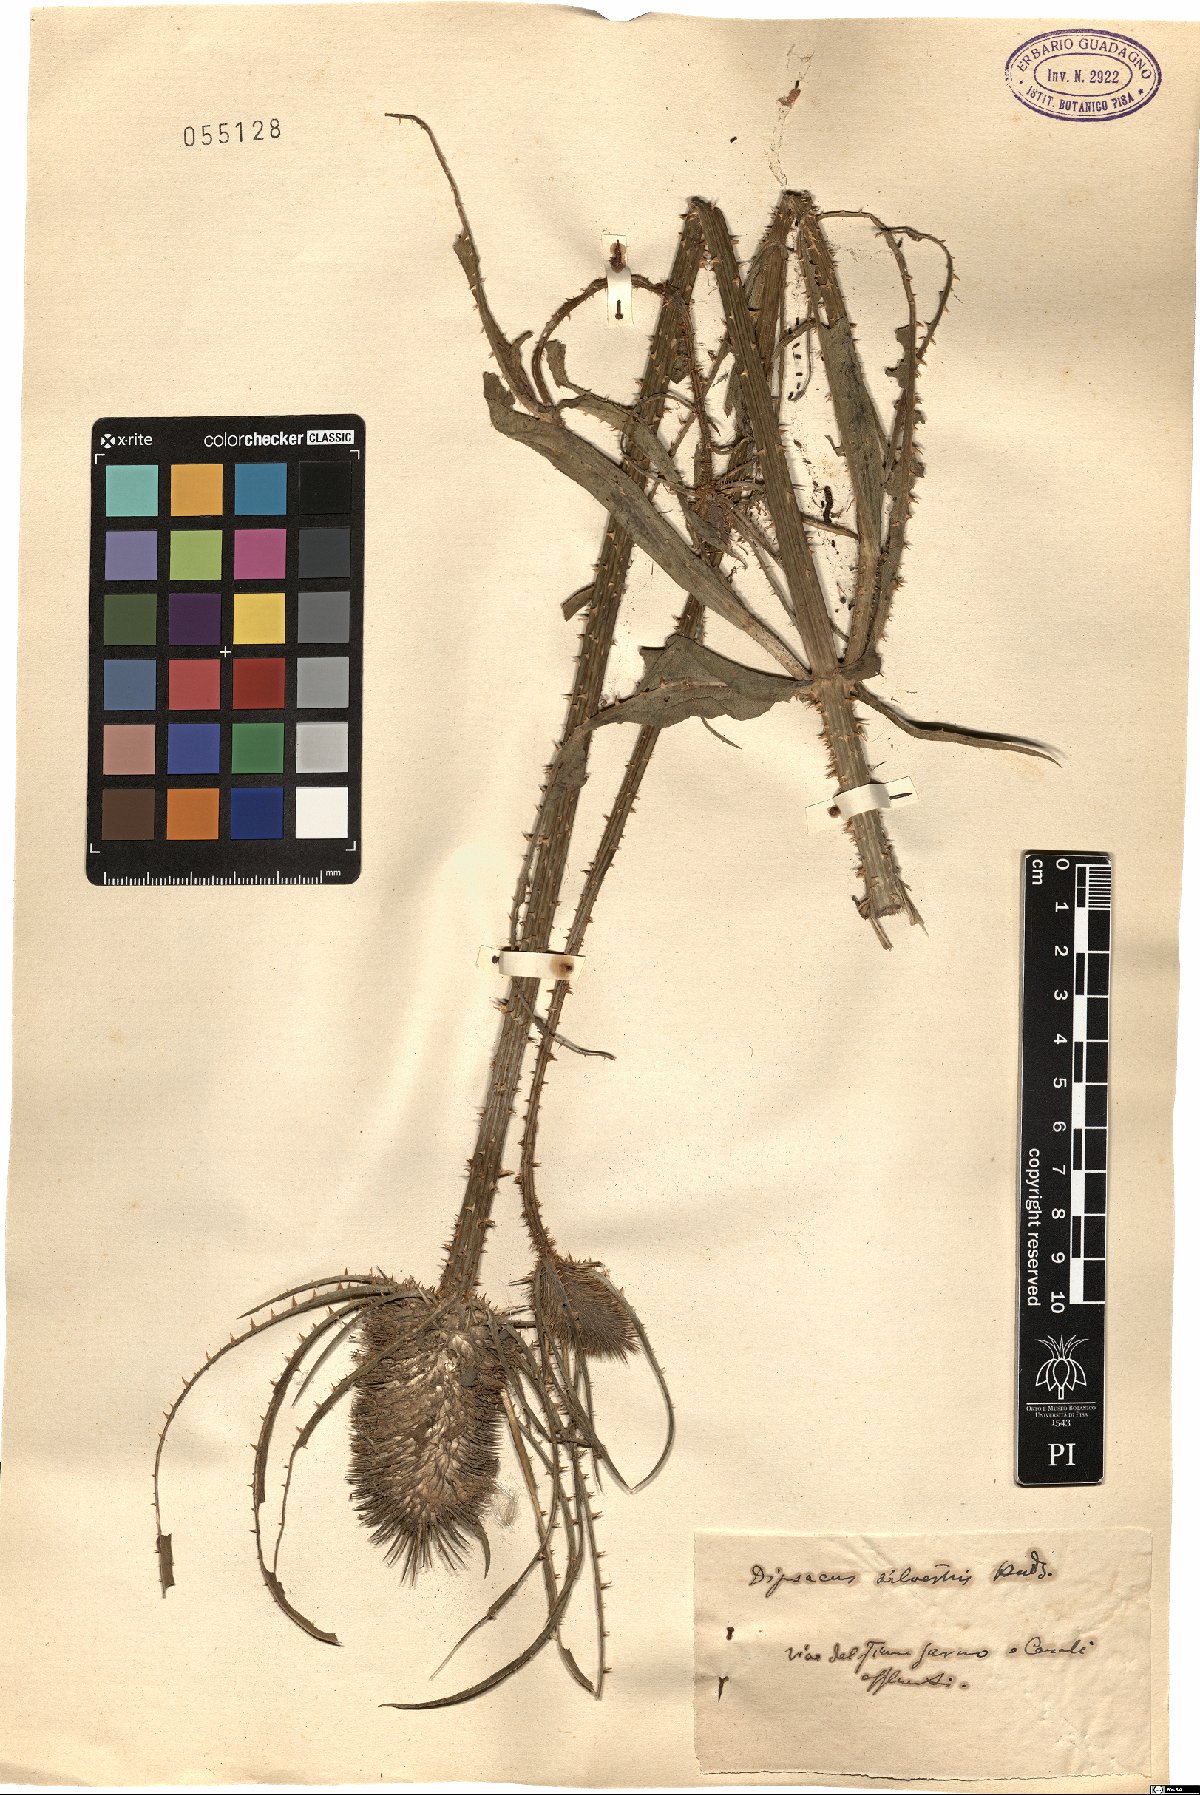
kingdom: Plantae
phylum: Tracheophyta
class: Magnoliopsida
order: Dipsacales
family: Caprifoliaceae
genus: Dipsacus
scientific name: Dipsacus fullonum
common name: Teasel
